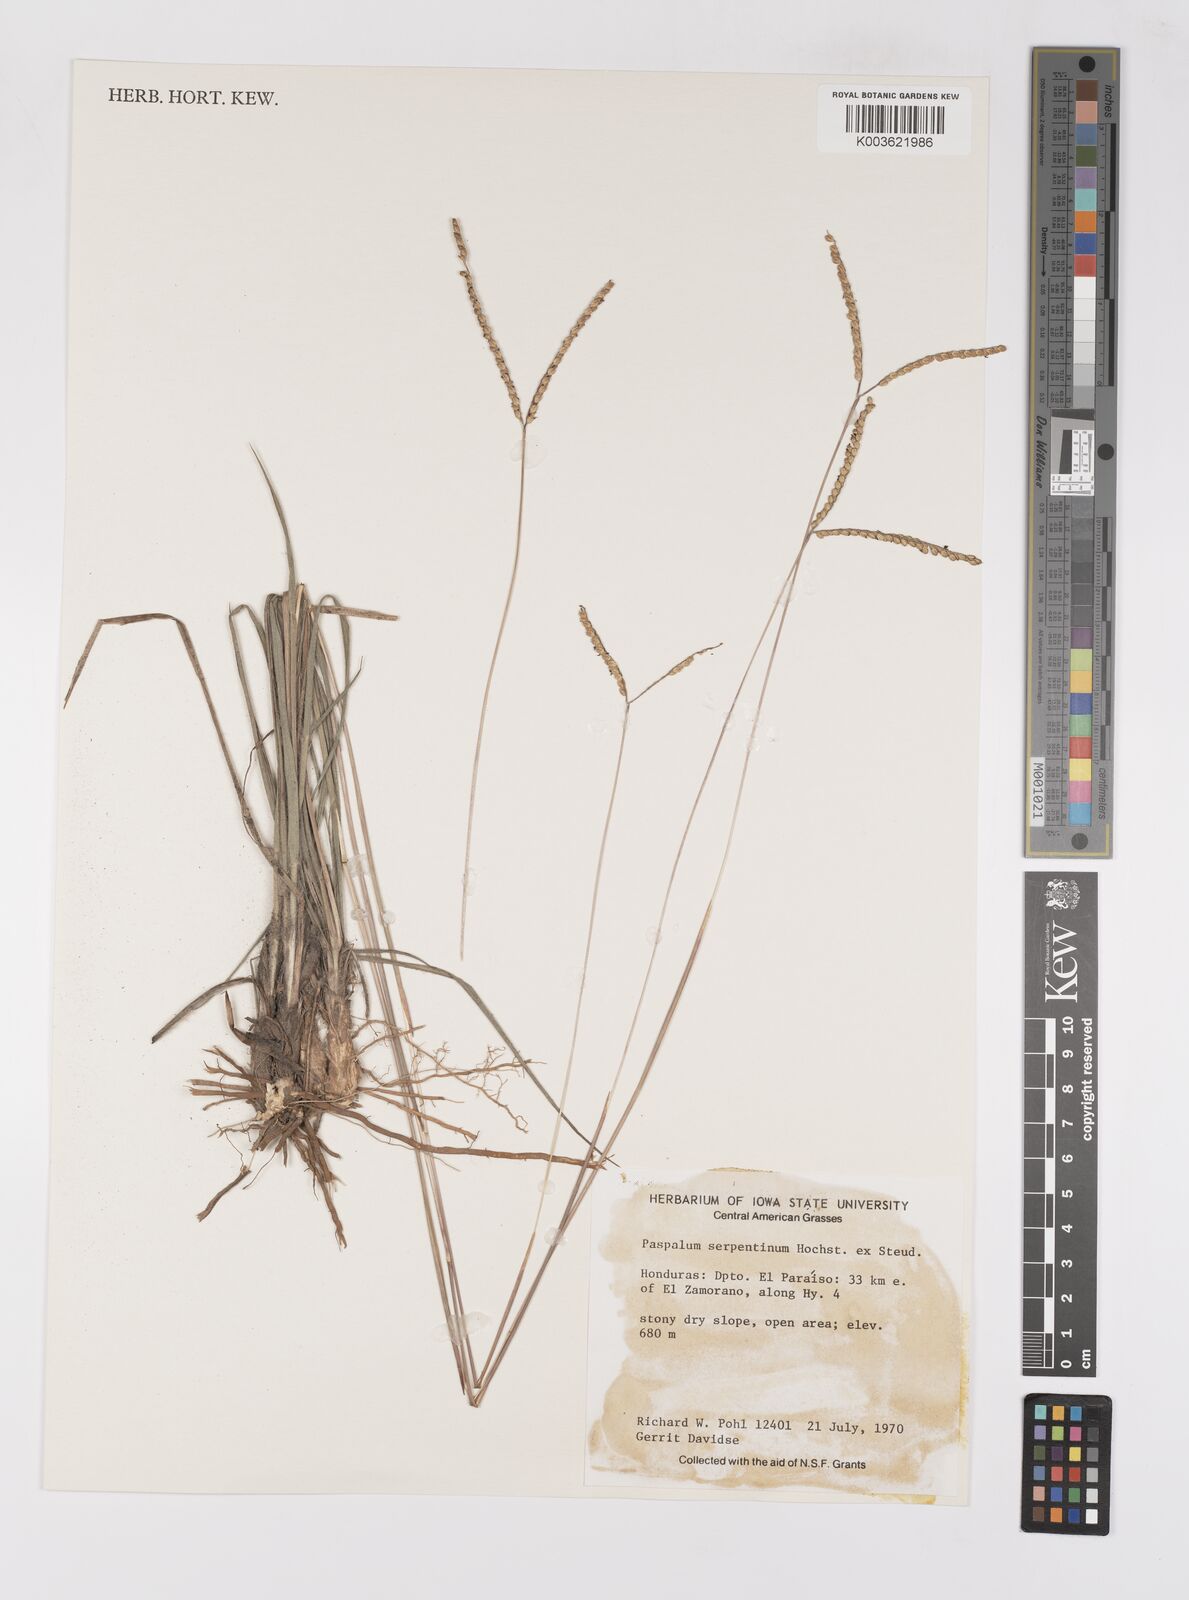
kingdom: Plantae
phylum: Tracheophyta
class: Liliopsida
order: Poales
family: Poaceae
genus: Paspalum
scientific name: Paspalum serpentinum
